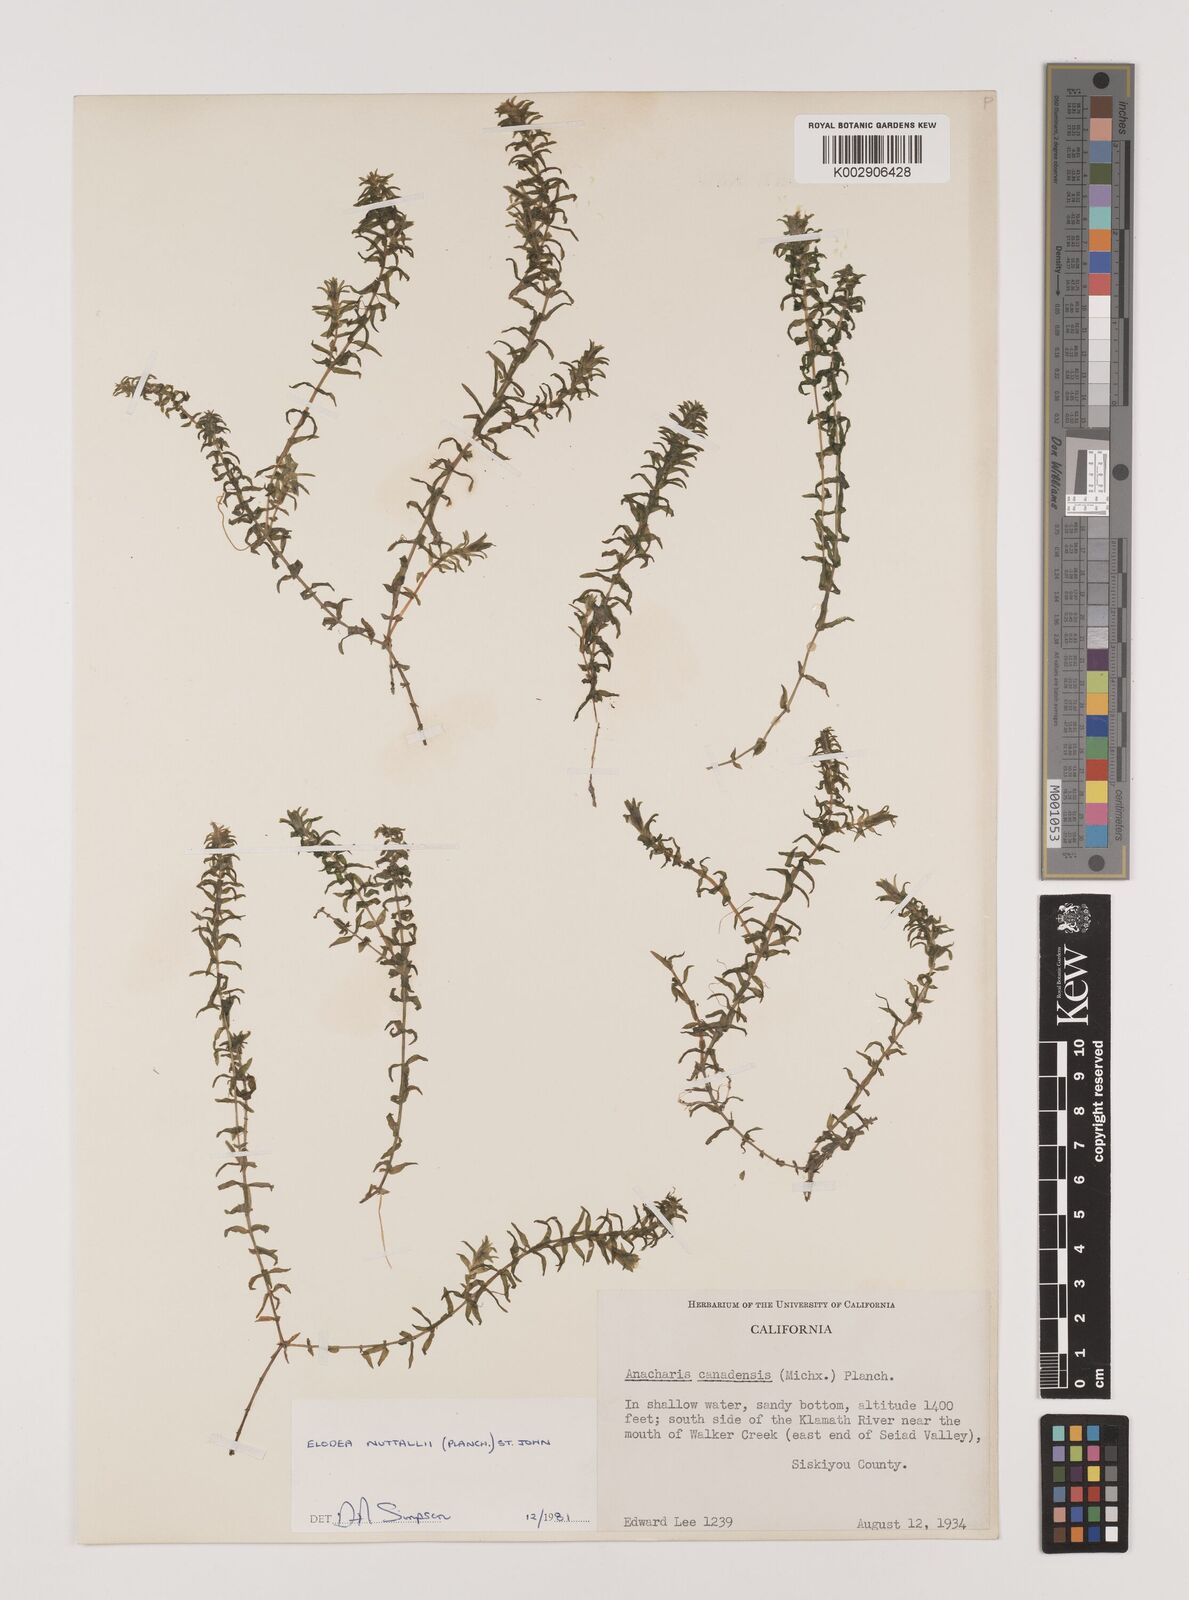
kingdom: Plantae
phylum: Tracheophyta
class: Liliopsida
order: Alismatales
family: Hydrocharitaceae
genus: Elodea
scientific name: Elodea nuttallii
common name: Nuttall's waterweed
